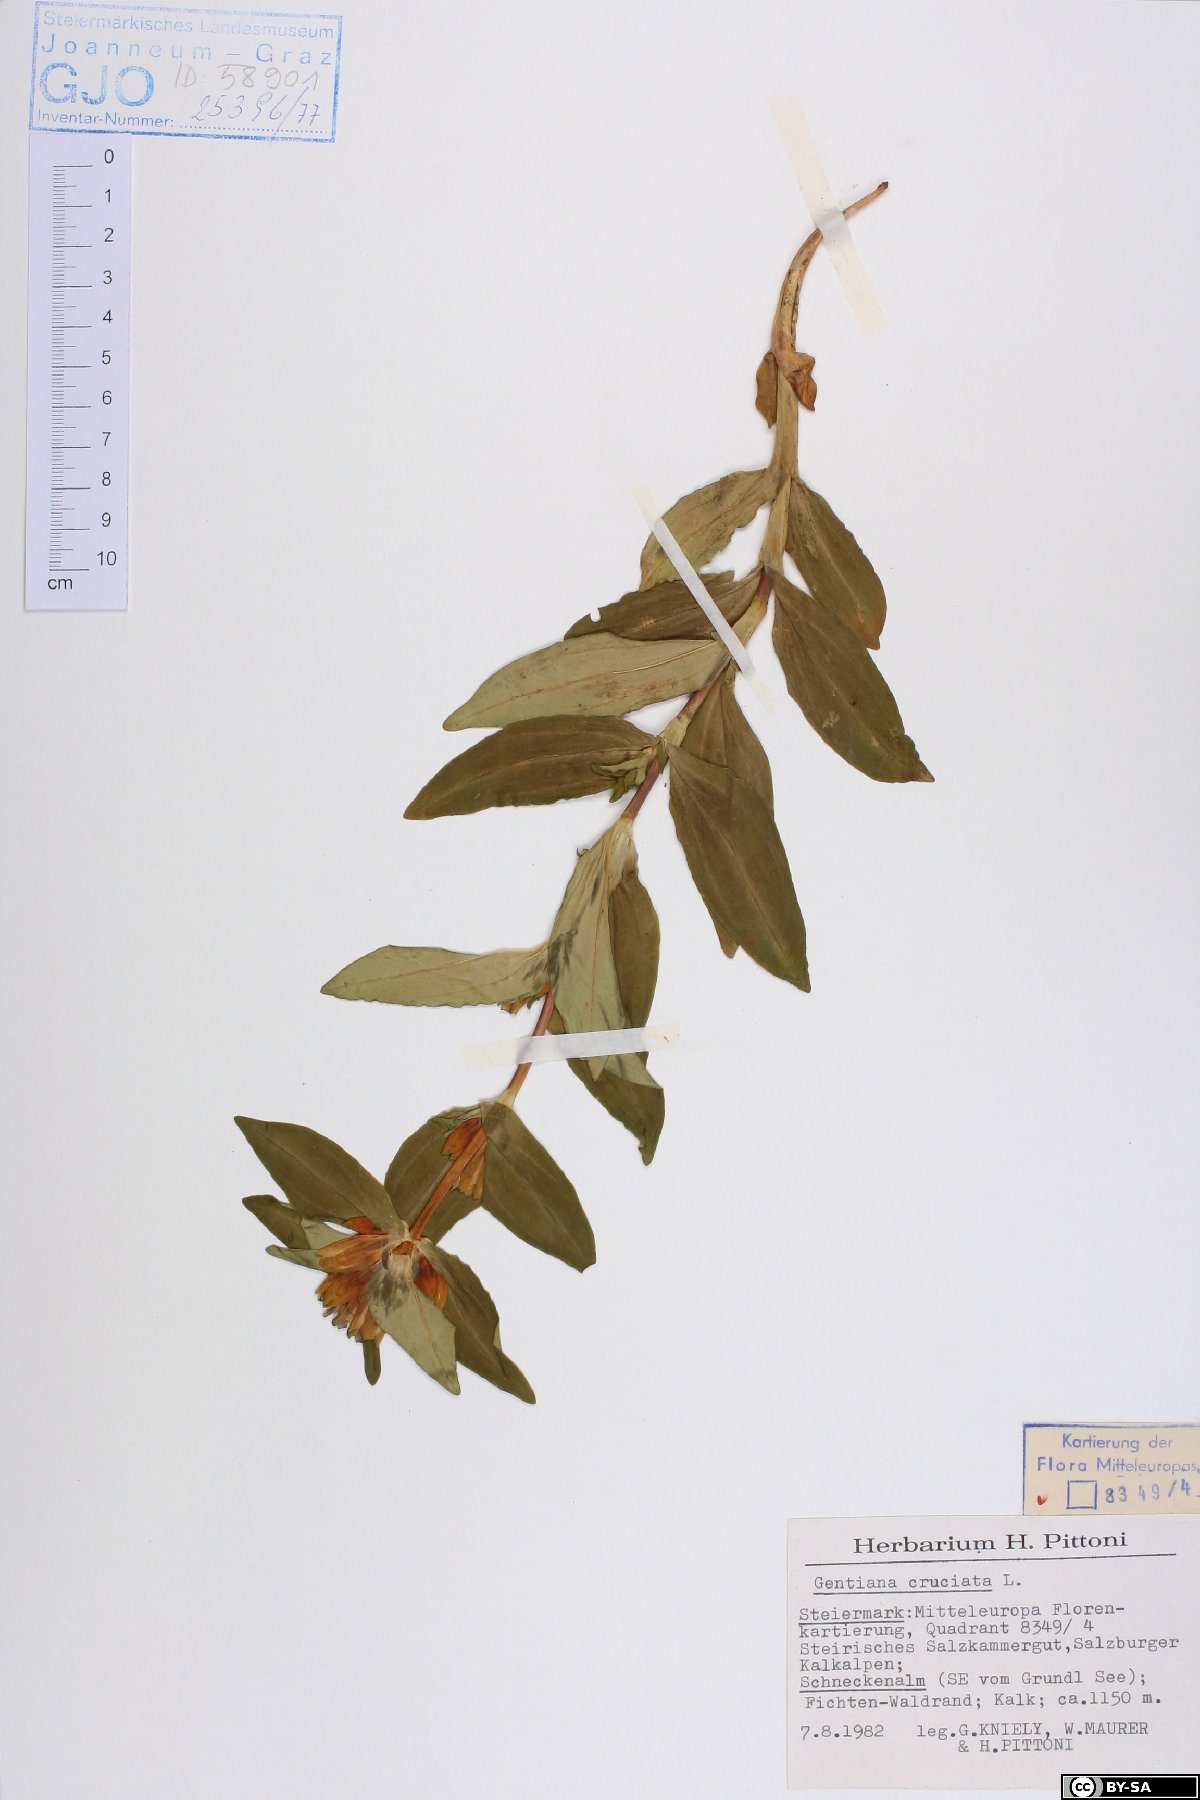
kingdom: Plantae
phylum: Tracheophyta
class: Magnoliopsida
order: Gentianales
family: Gentianaceae
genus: Gentiana
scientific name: Gentiana cruciata
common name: Cross gentian
